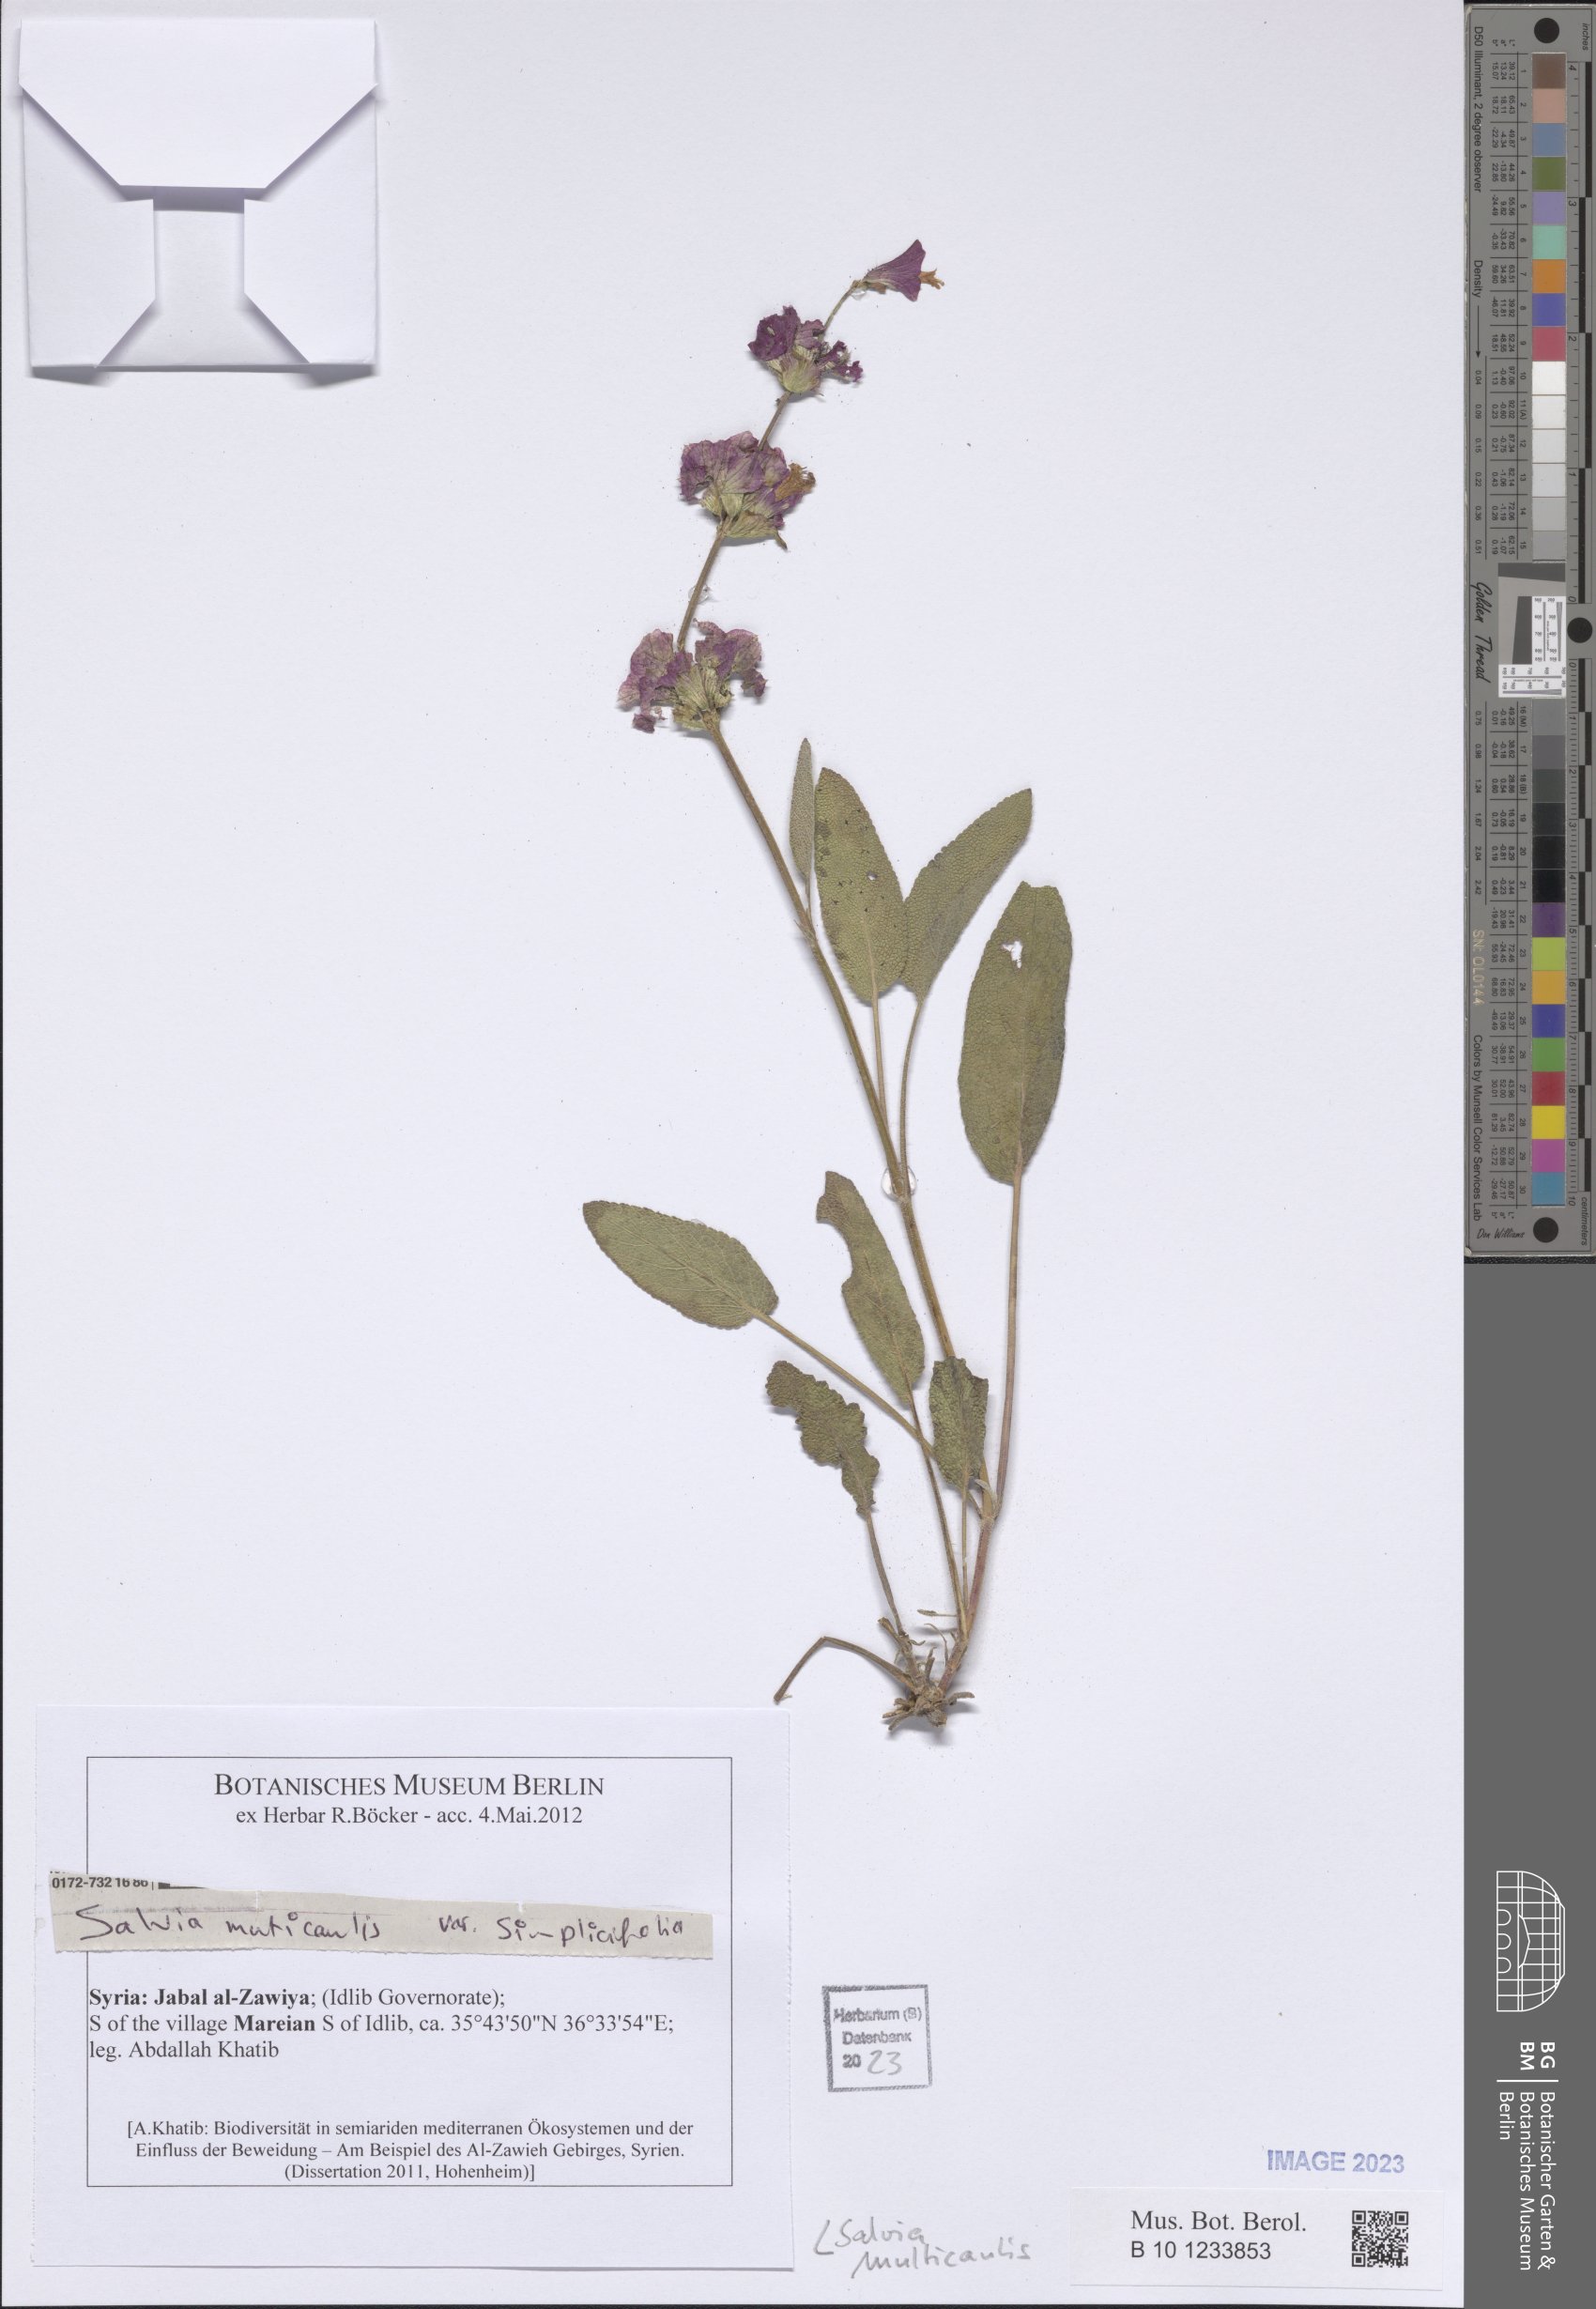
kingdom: Plantae
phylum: Tracheophyta
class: Magnoliopsida
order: Lamiales
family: Lamiaceae
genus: Salvia
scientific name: Salvia multicaulis
